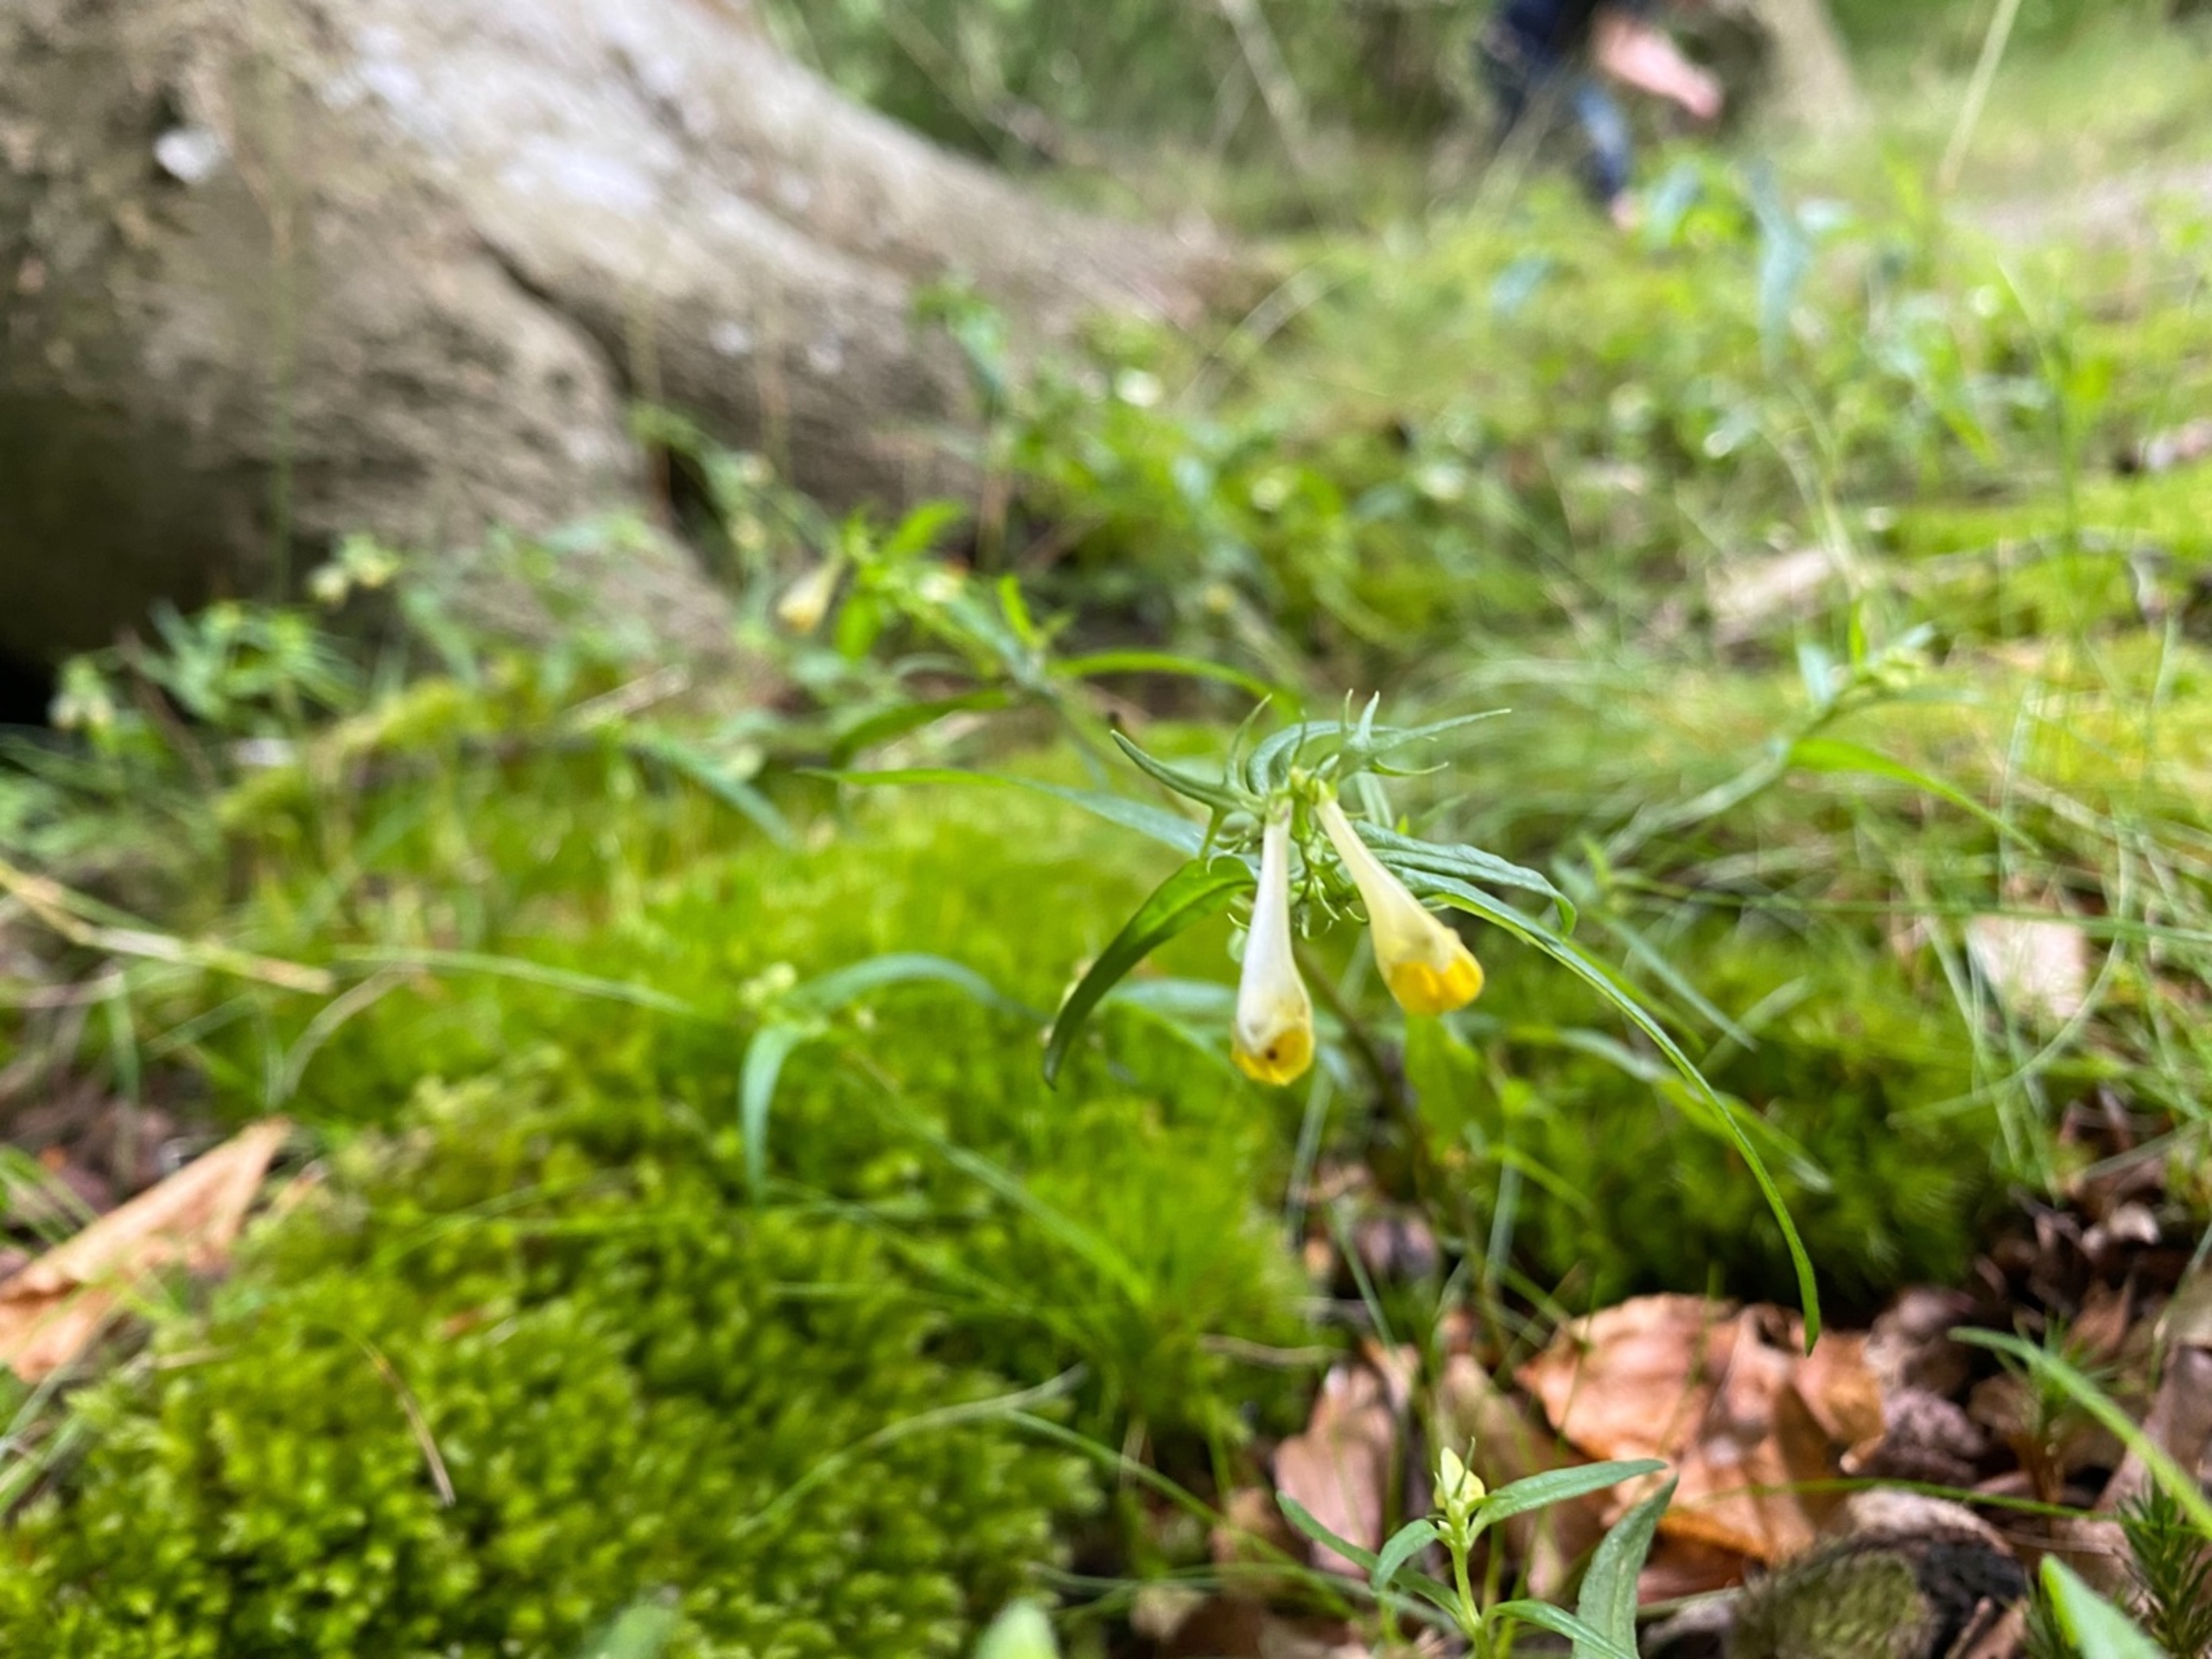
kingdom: Plantae
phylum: Tracheophyta
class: Magnoliopsida
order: Lamiales
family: Orobanchaceae
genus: Melampyrum
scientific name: Melampyrum pratense
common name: Almindelig kohvede
